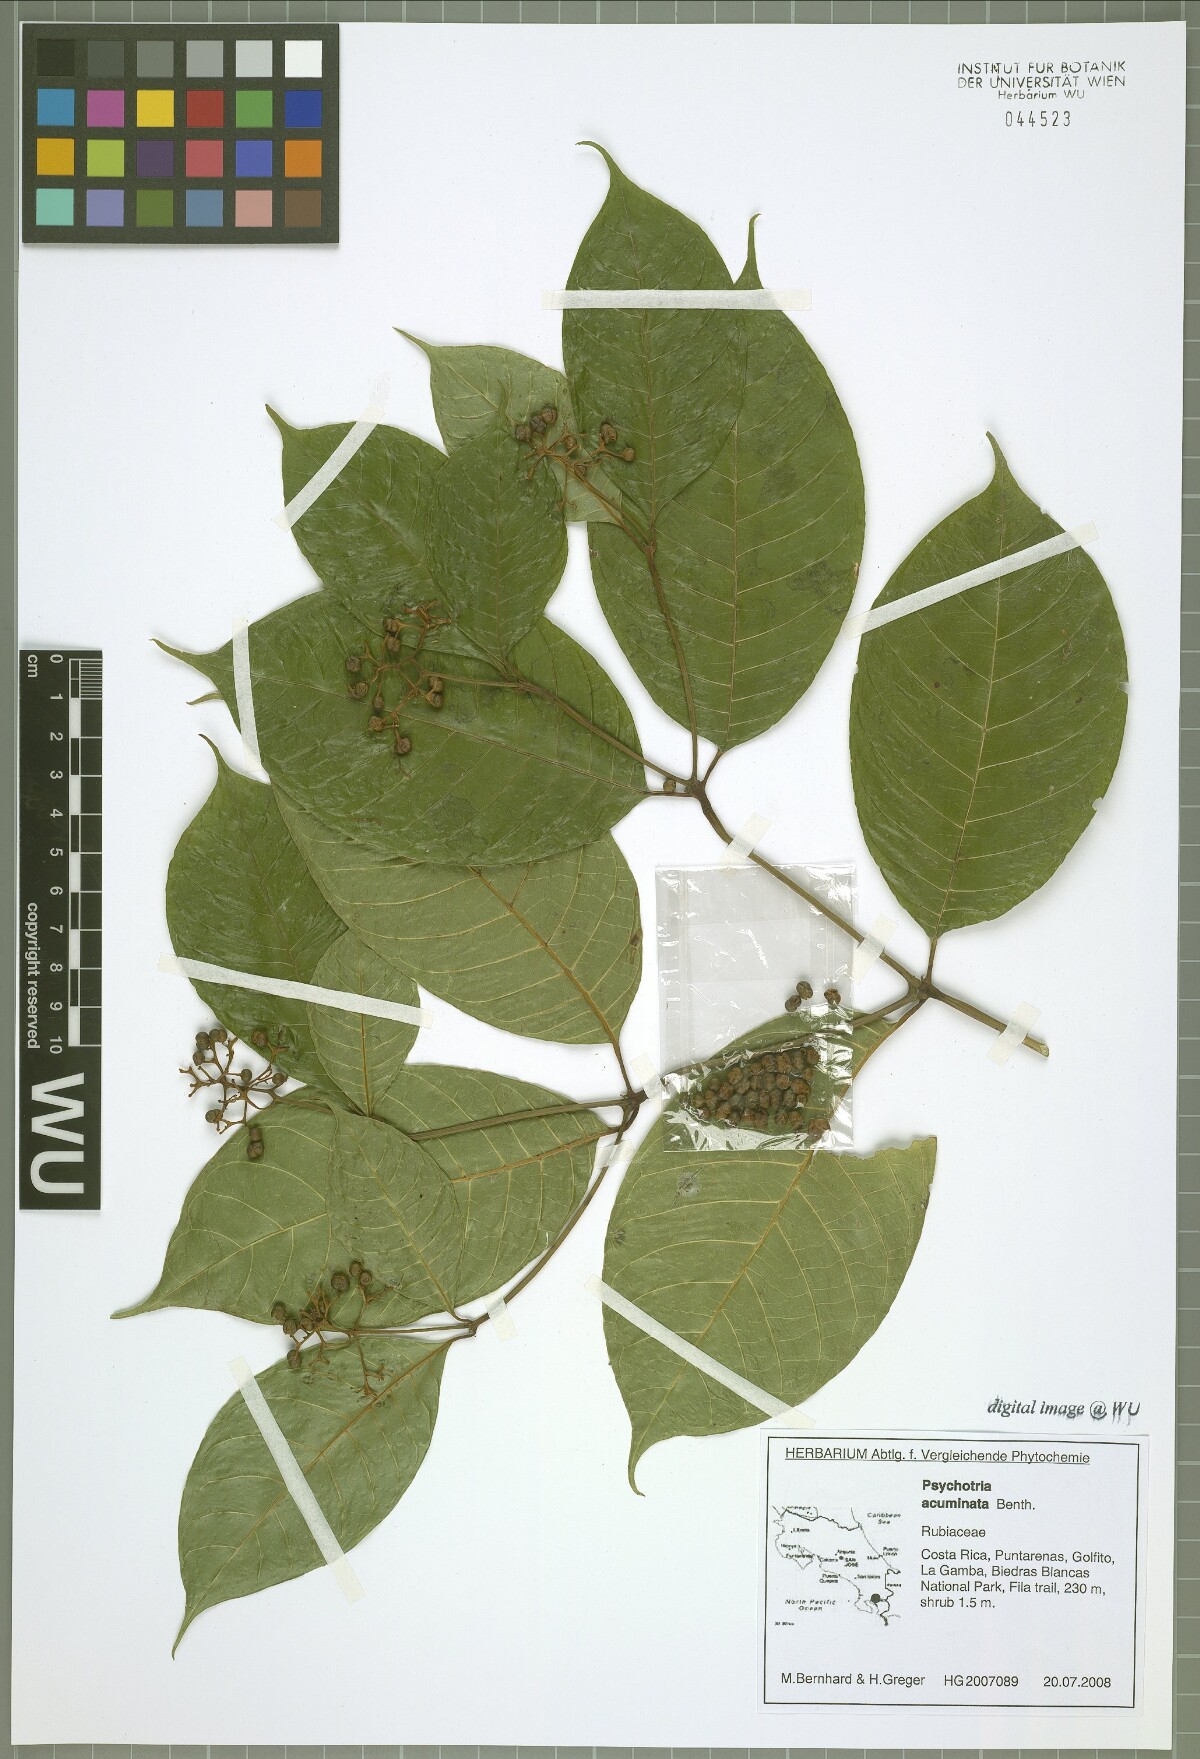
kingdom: Plantae
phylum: Tracheophyta
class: Magnoliopsida
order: Gentianales
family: Rubiaceae
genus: Palicourea
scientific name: Palicourea acuminata
